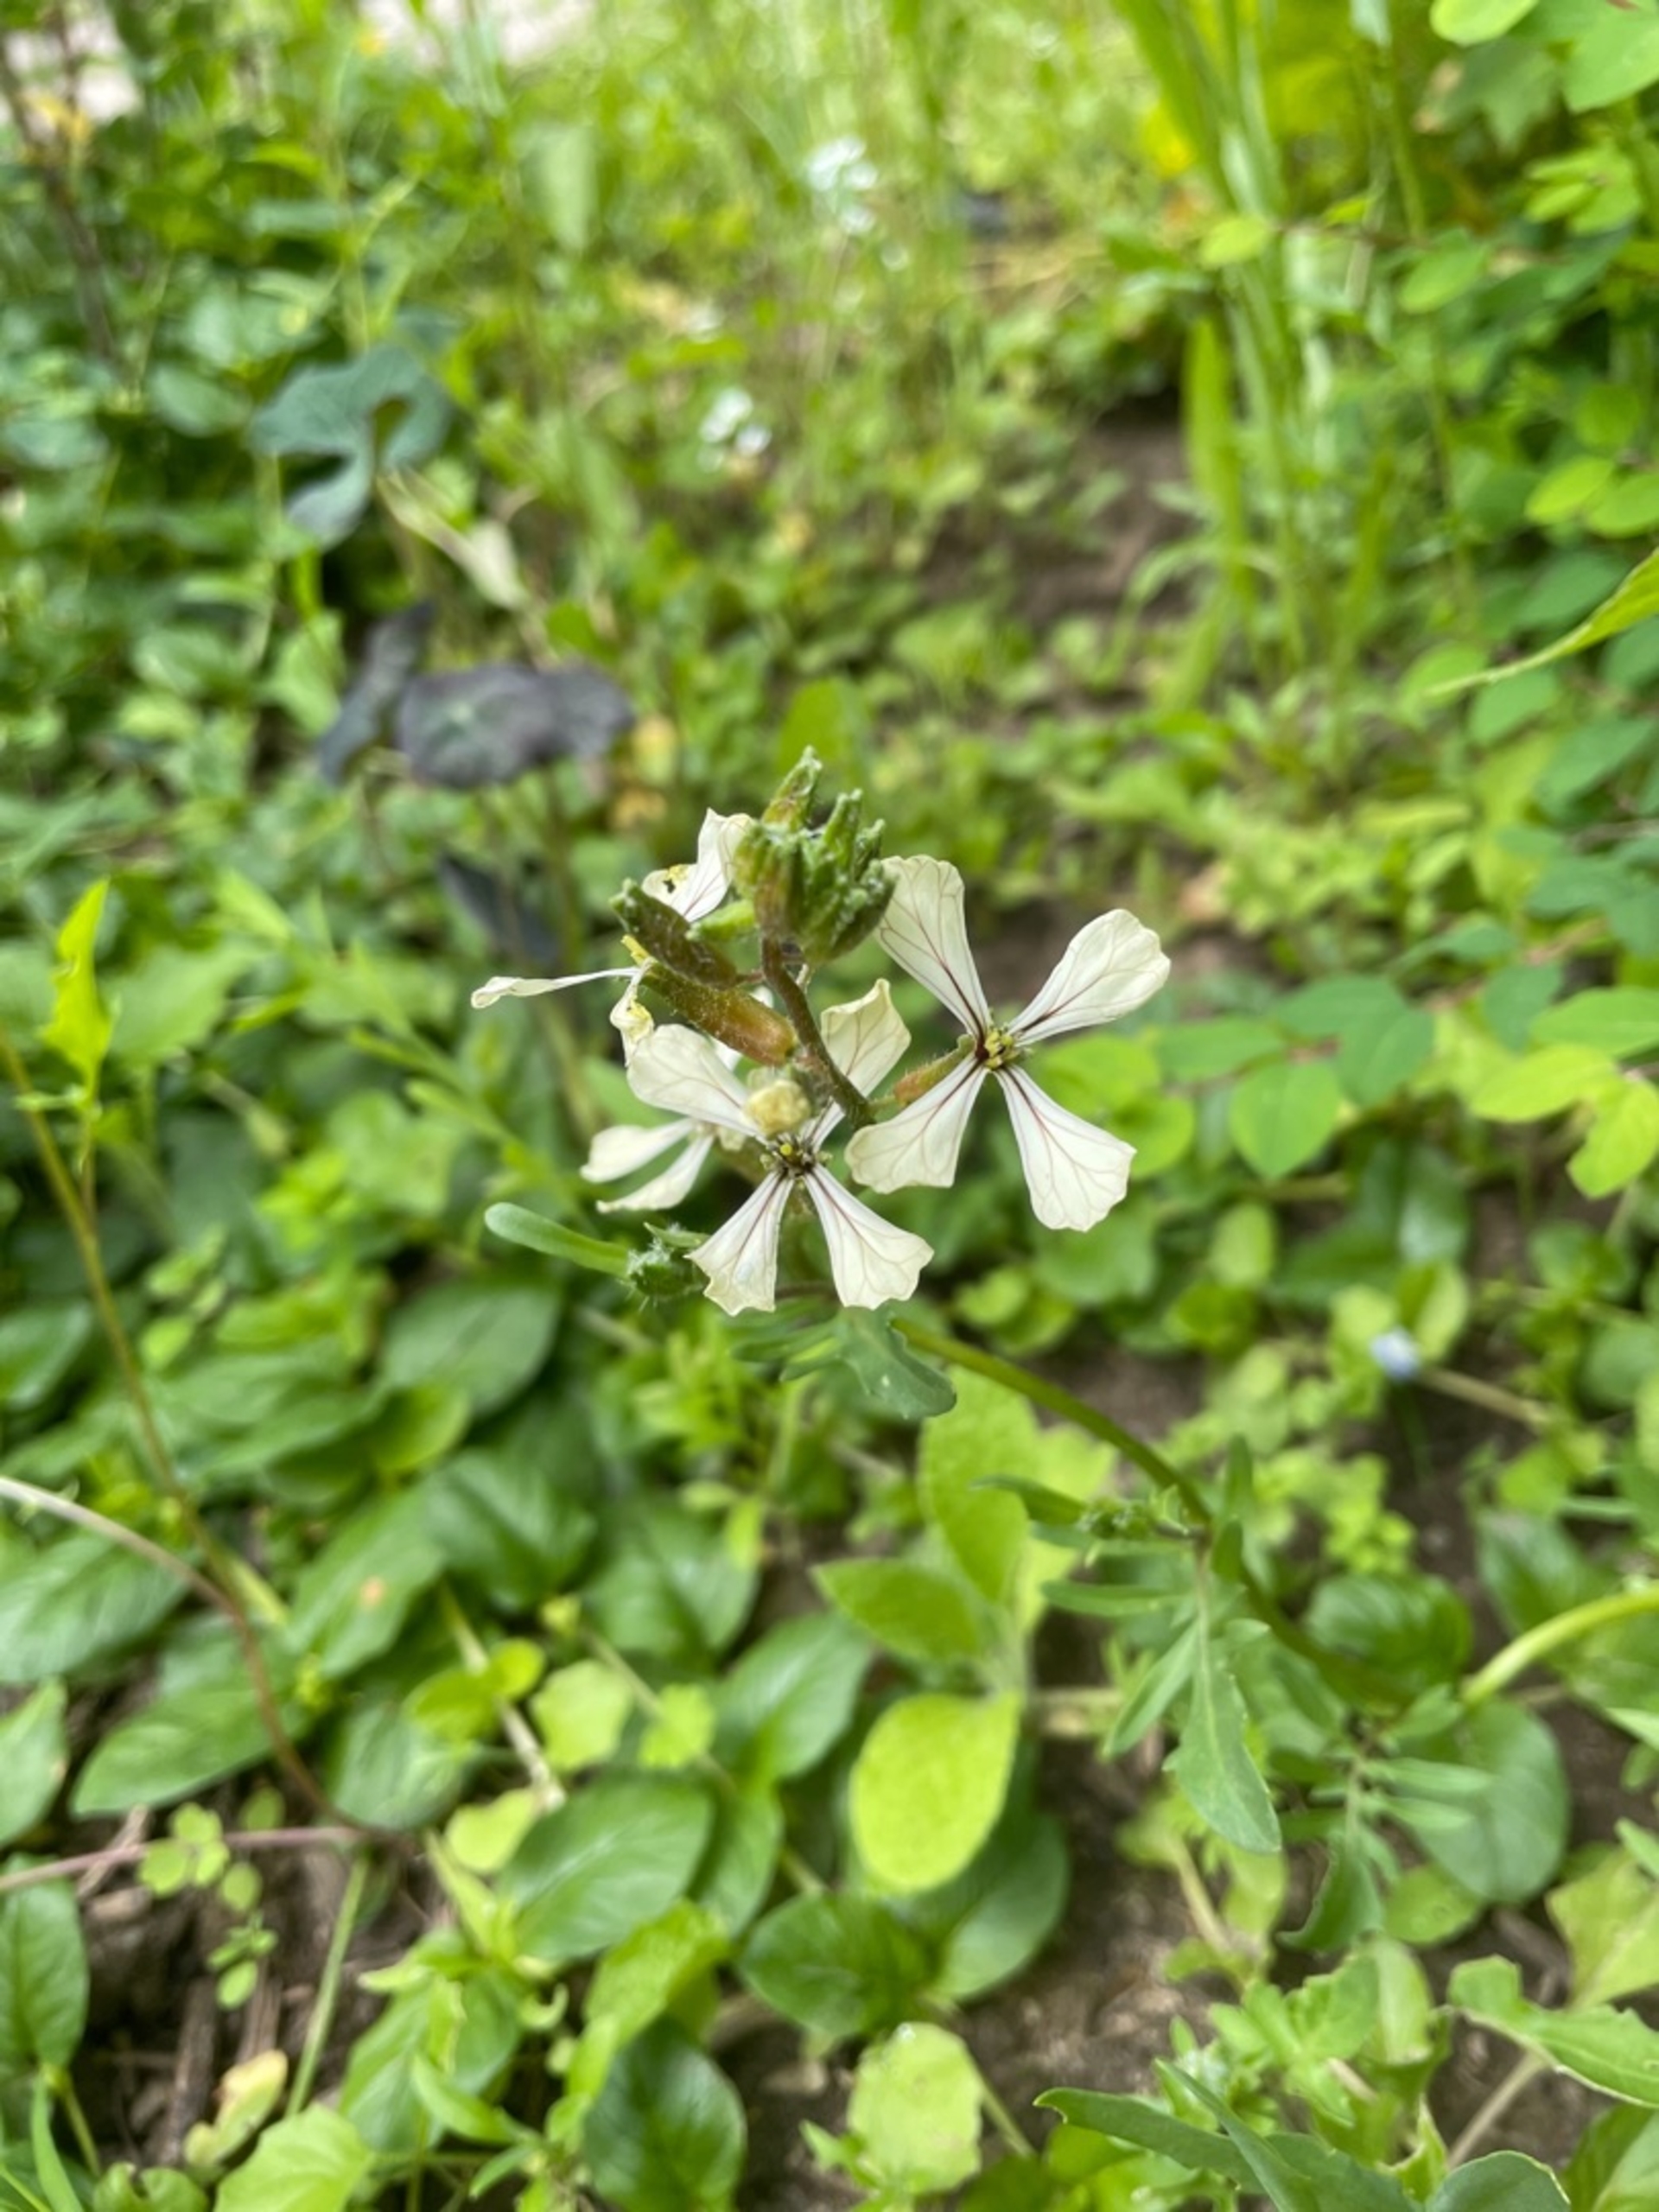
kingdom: Plantae
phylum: Tracheophyta
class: Magnoliopsida
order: Brassicales
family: Brassicaceae
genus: Eruca
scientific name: Eruca vesicaria
